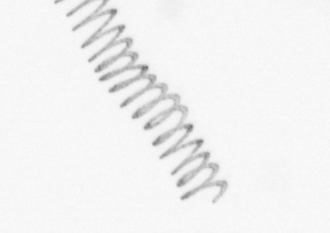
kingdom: Chromista
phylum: Ochrophyta
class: Bacillariophyceae
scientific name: Bacillariophyceae
